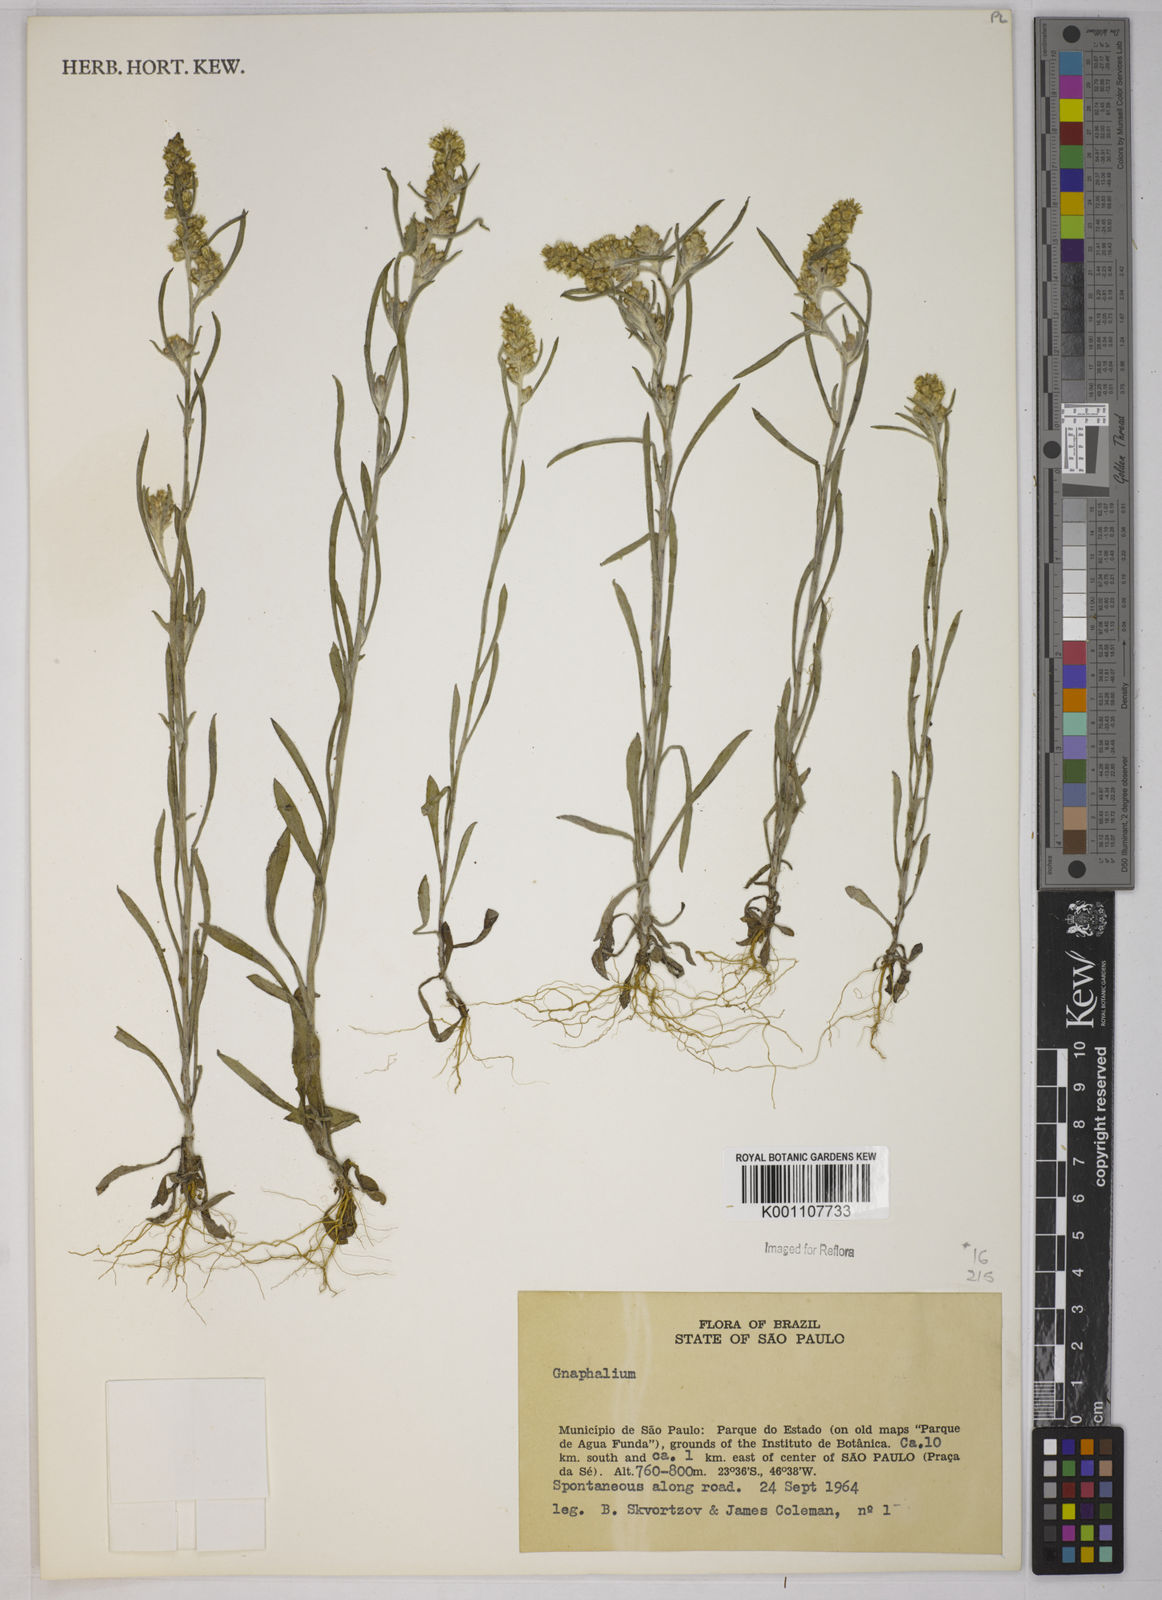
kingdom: Plantae
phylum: Tracheophyta
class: Magnoliopsida
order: Asterales
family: Asteraceae
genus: Gnaphalium
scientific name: Gnaphalium
